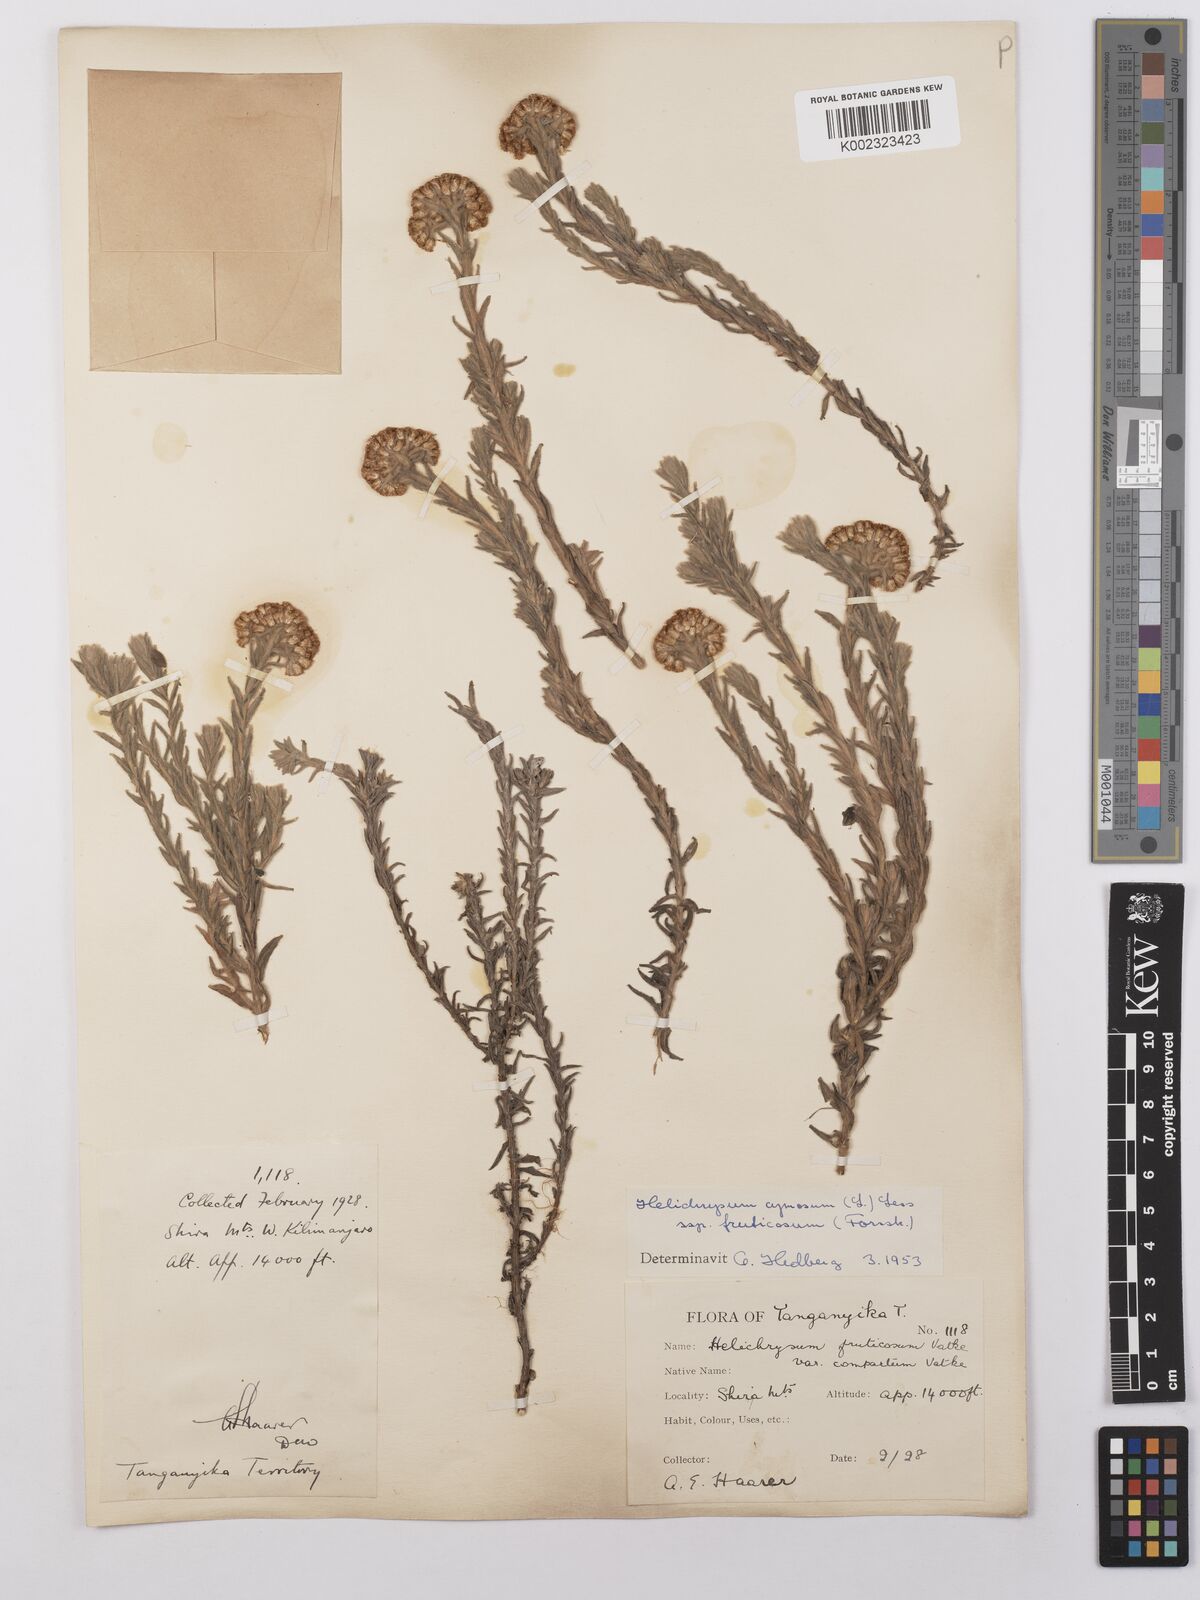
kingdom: Plantae
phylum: Tracheophyta
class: Magnoliopsida
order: Asterales
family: Asteraceae
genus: Helichrysum
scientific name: Helichrysum forskahlii
